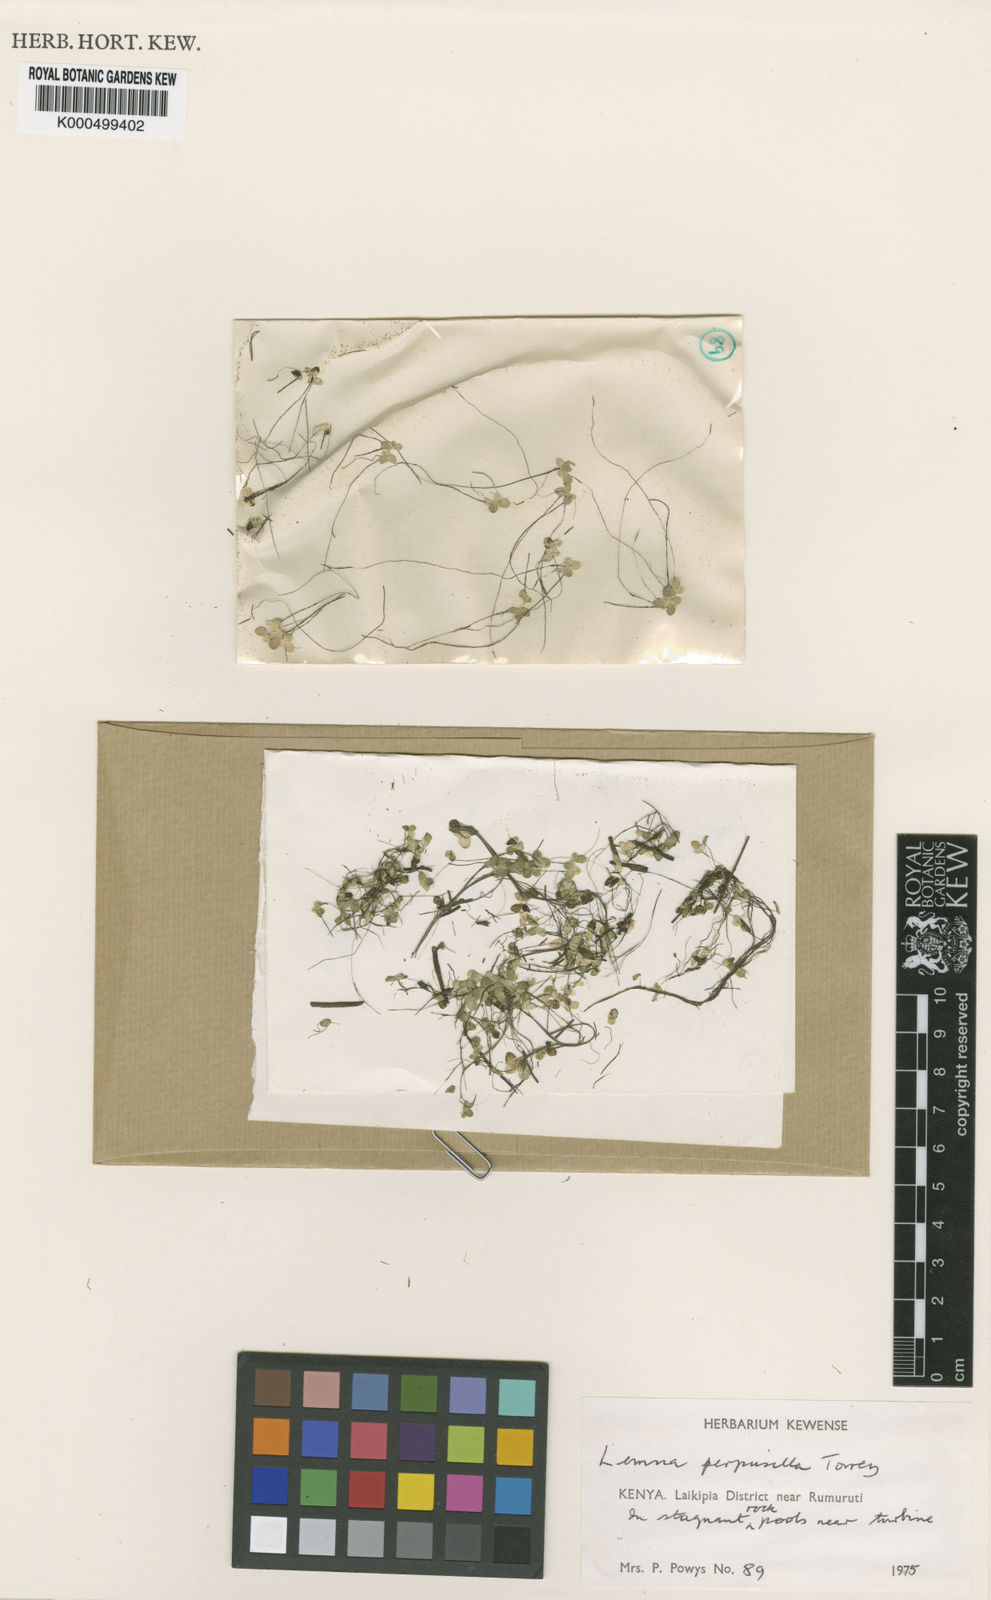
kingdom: Plantae
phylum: Tracheophyta
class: Liliopsida
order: Alismatales
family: Araceae
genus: Lemna
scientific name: Lemna
